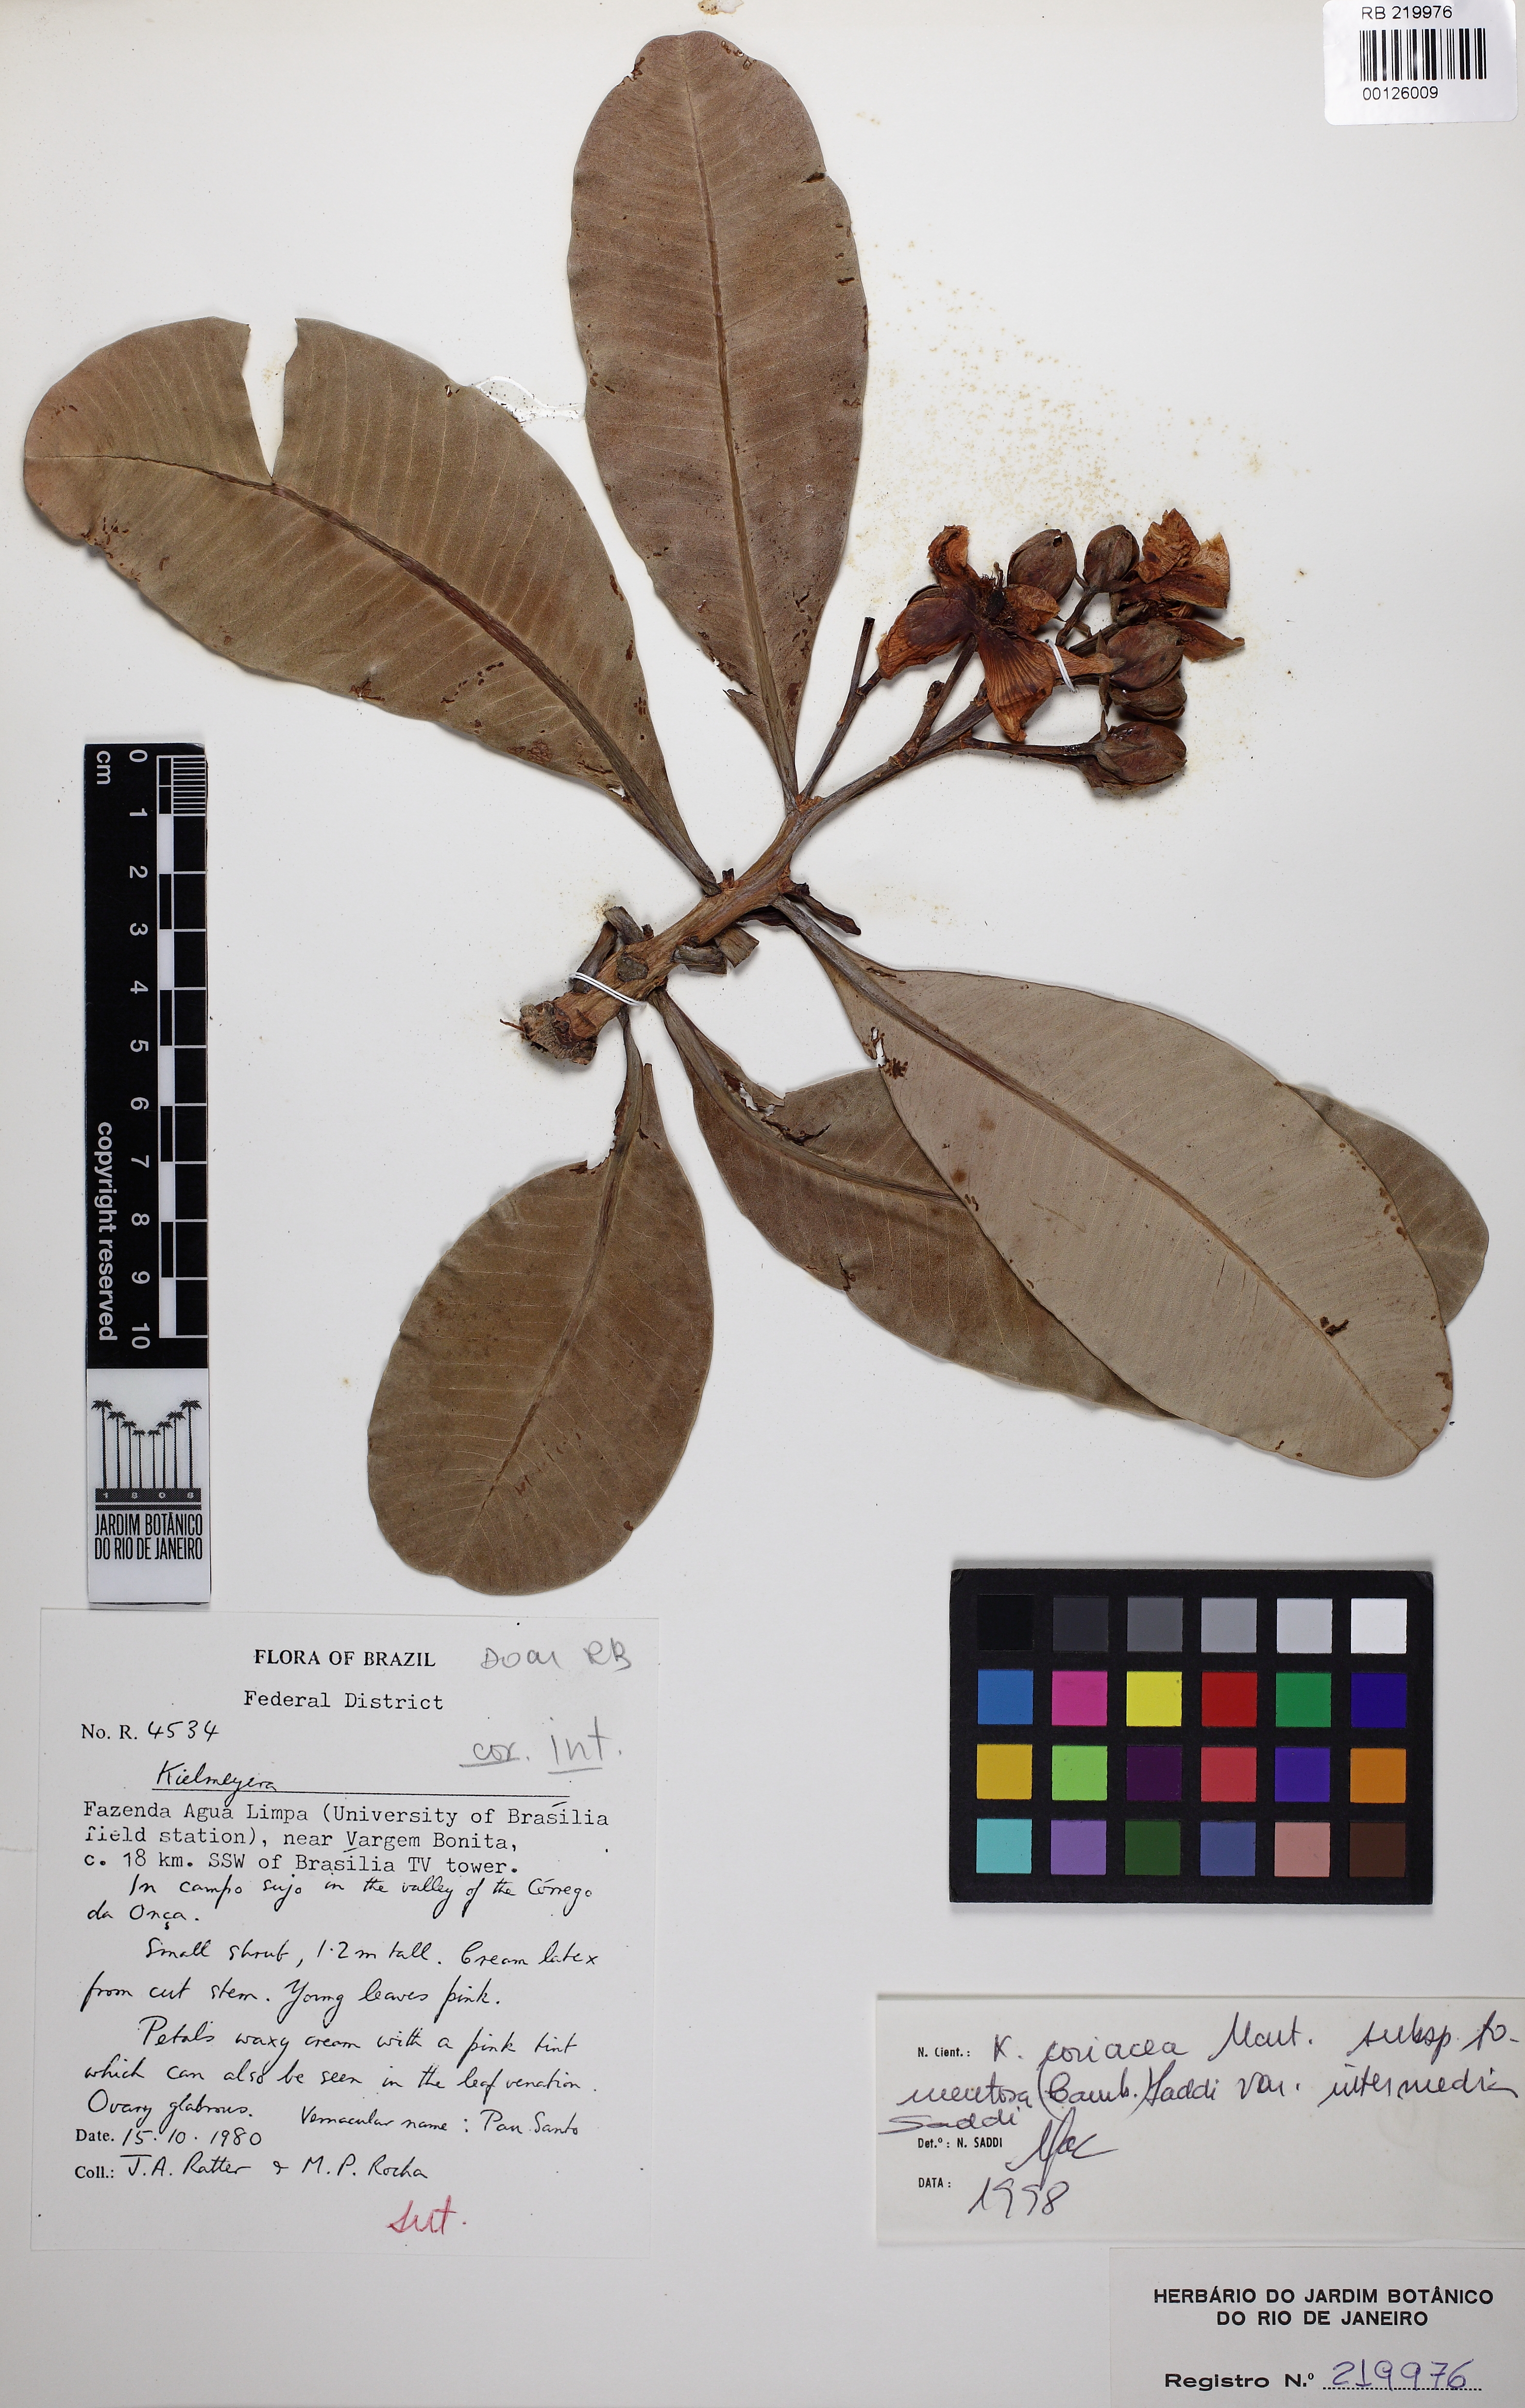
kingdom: Plantae
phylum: Tracheophyta
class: Magnoliopsida
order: Malpighiales
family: Calophyllaceae
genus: Kielmeyera
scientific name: Kielmeyera coriacea
